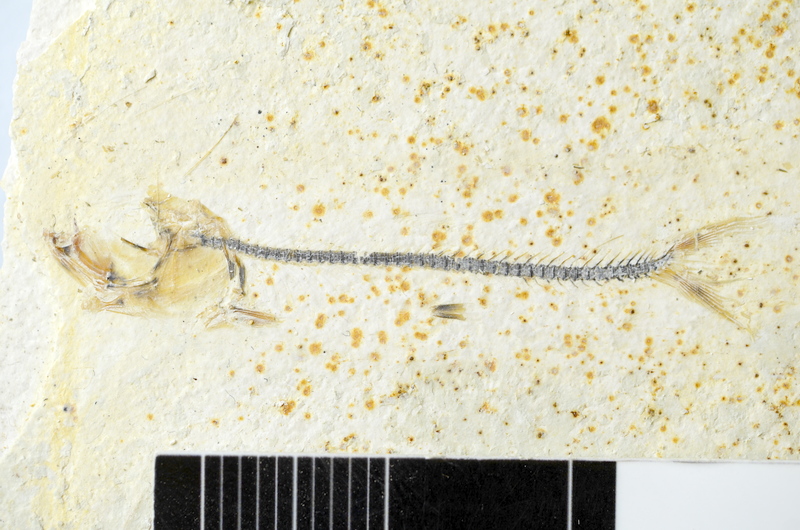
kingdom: Animalia
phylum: Chordata
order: Salmoniformes
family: Orthogonikleithridae
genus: Orthogonikleithrus
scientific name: Orthogonikleithrus hoelli
